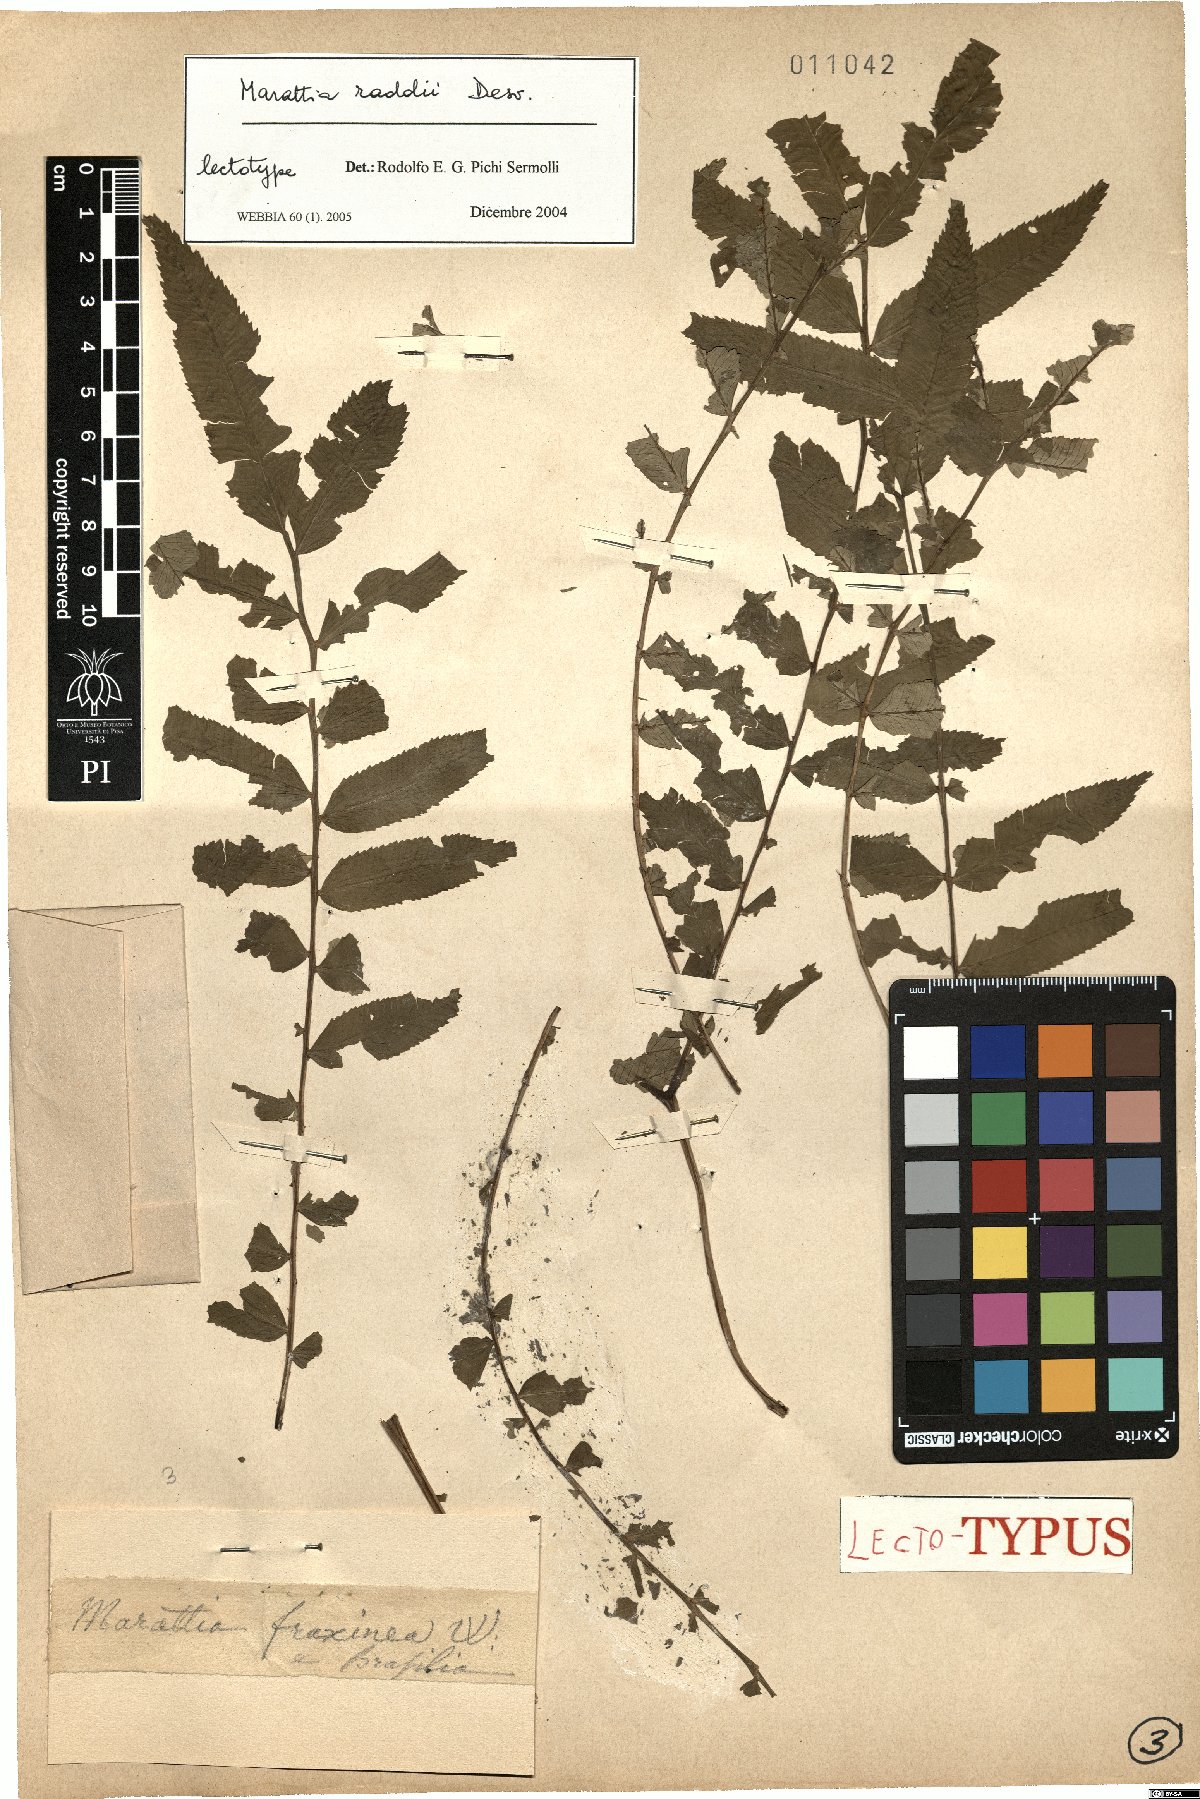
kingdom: Plantae
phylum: Tracheophyta
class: Polypodiopsida
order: Marattiales
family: Marattiaceae
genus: Eupodium
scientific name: Eupodium cicutifolium
